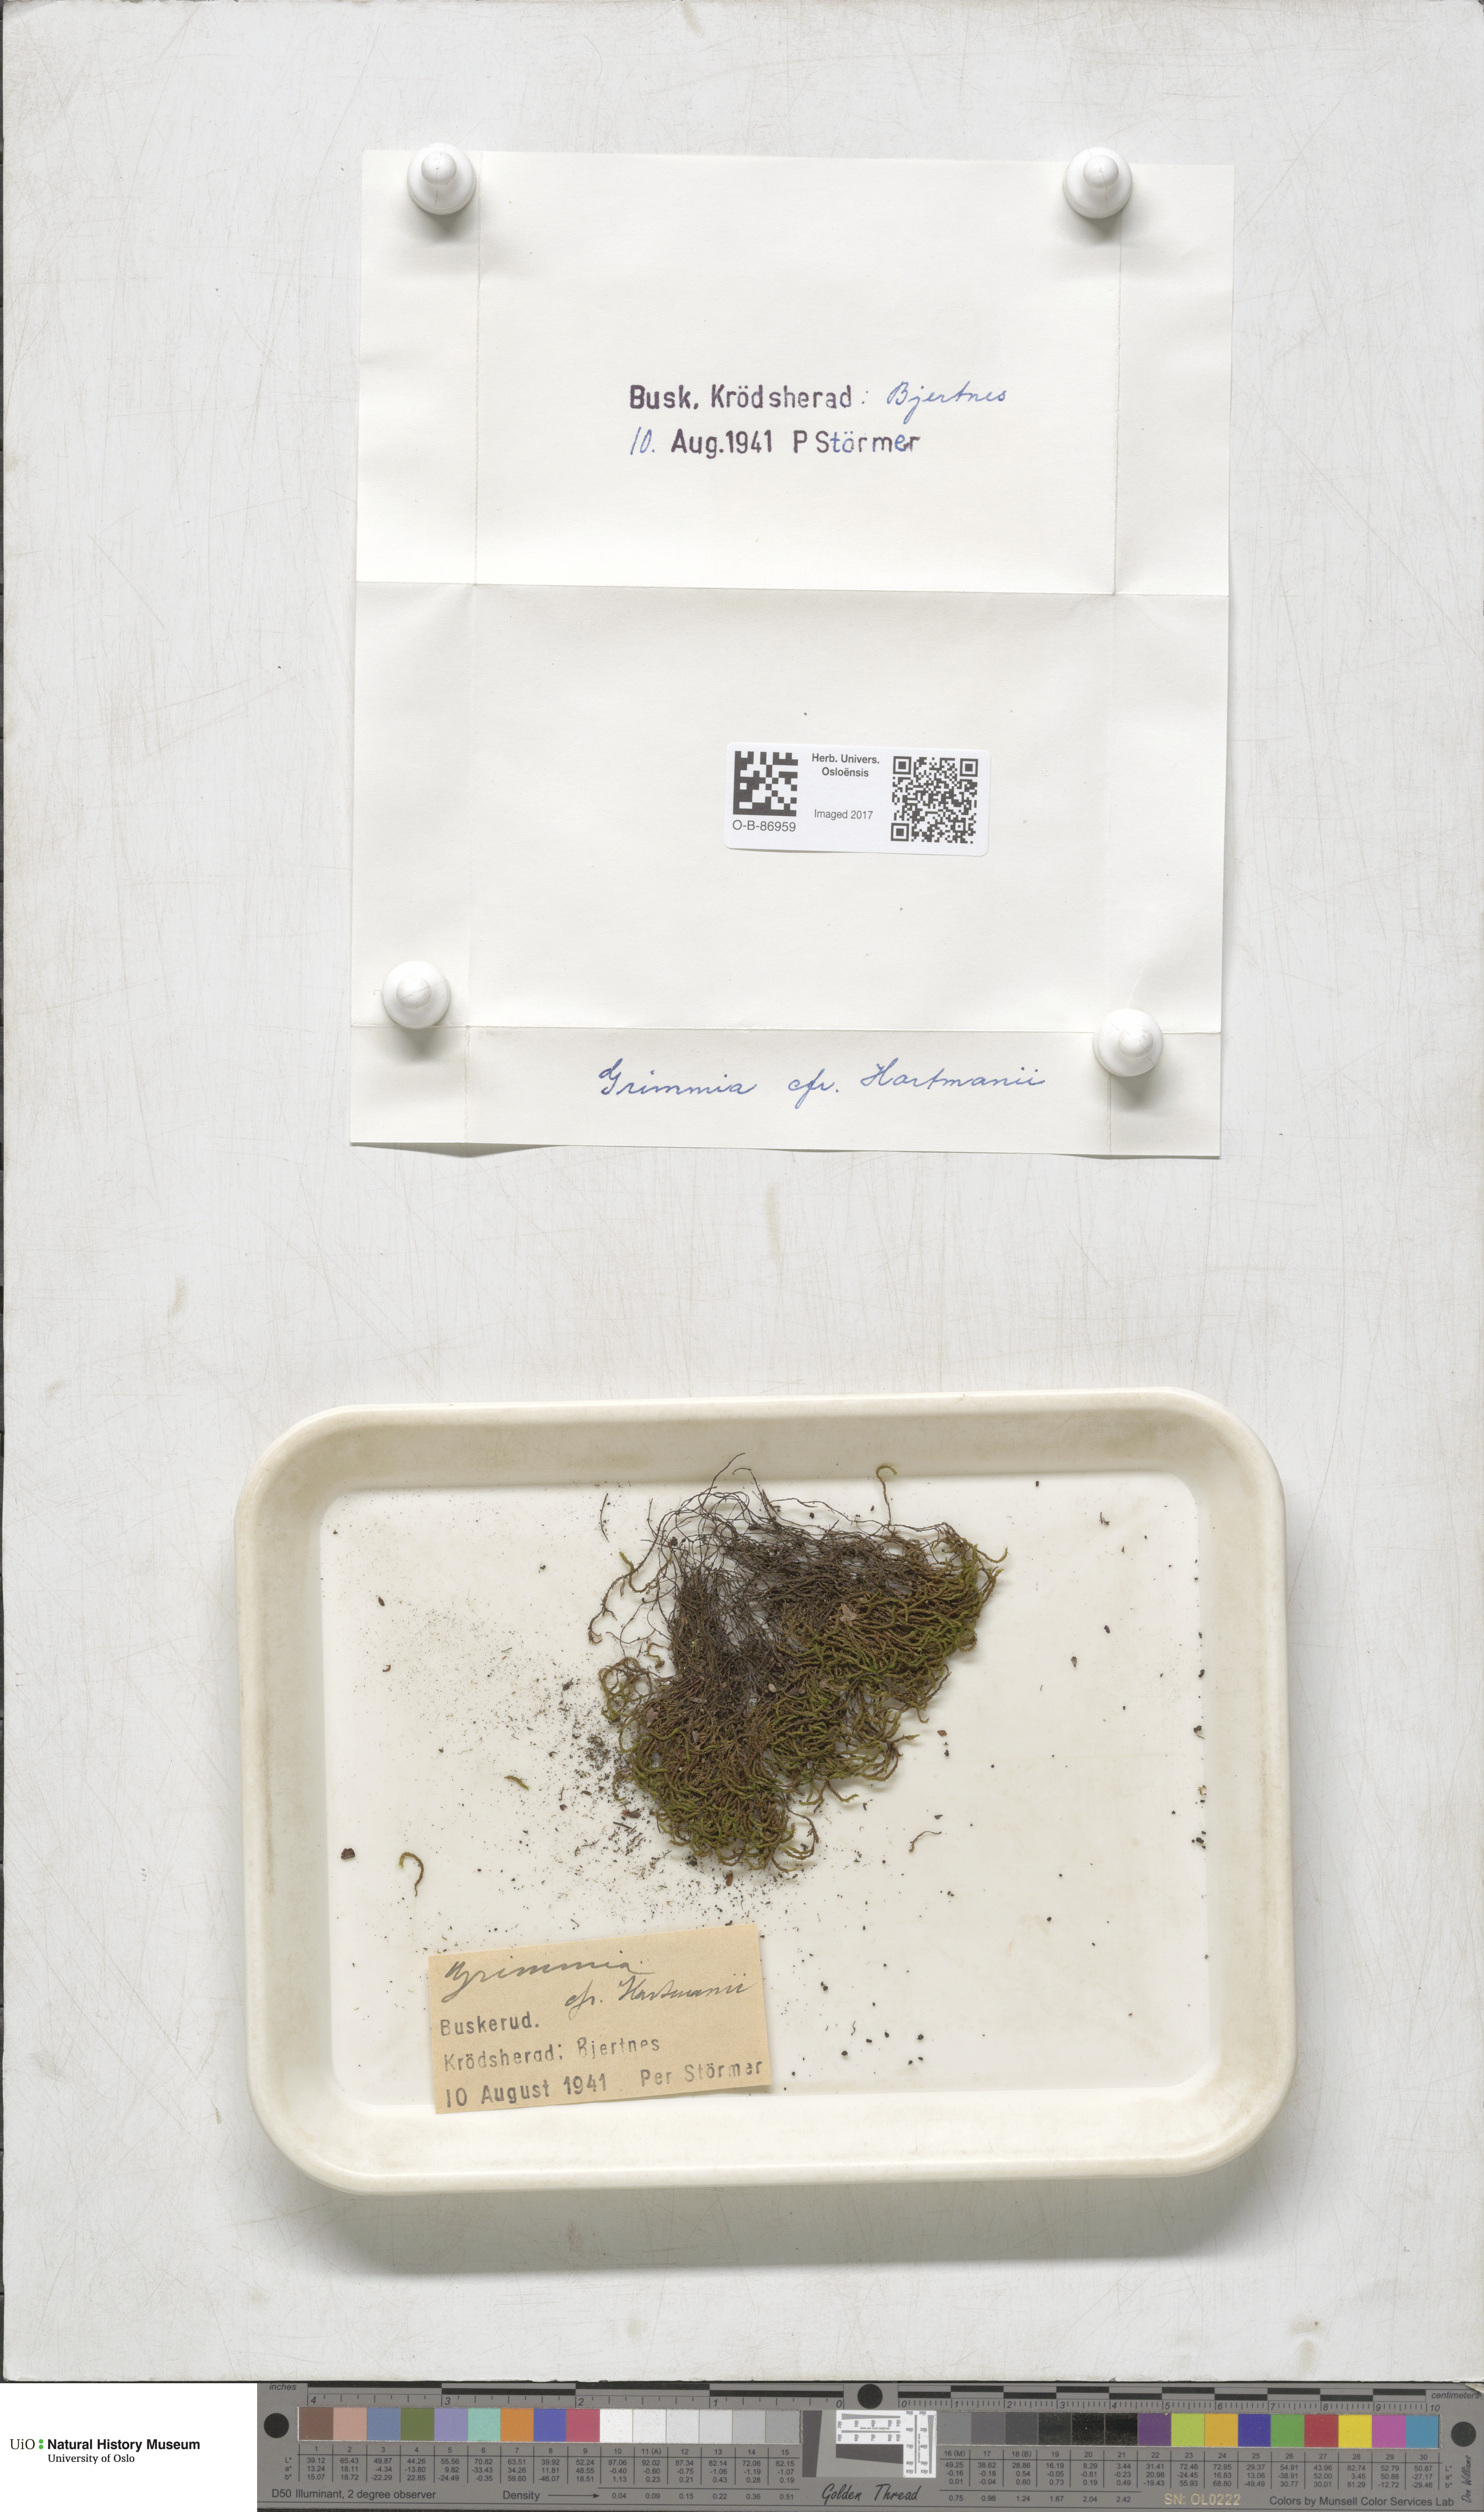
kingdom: Plantae
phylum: Bryophyta
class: Bryopsida
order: Grimmiales
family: Grimmiaceae
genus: Grimmia
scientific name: Grimmia hartmanii
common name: Hartman's grimmia
